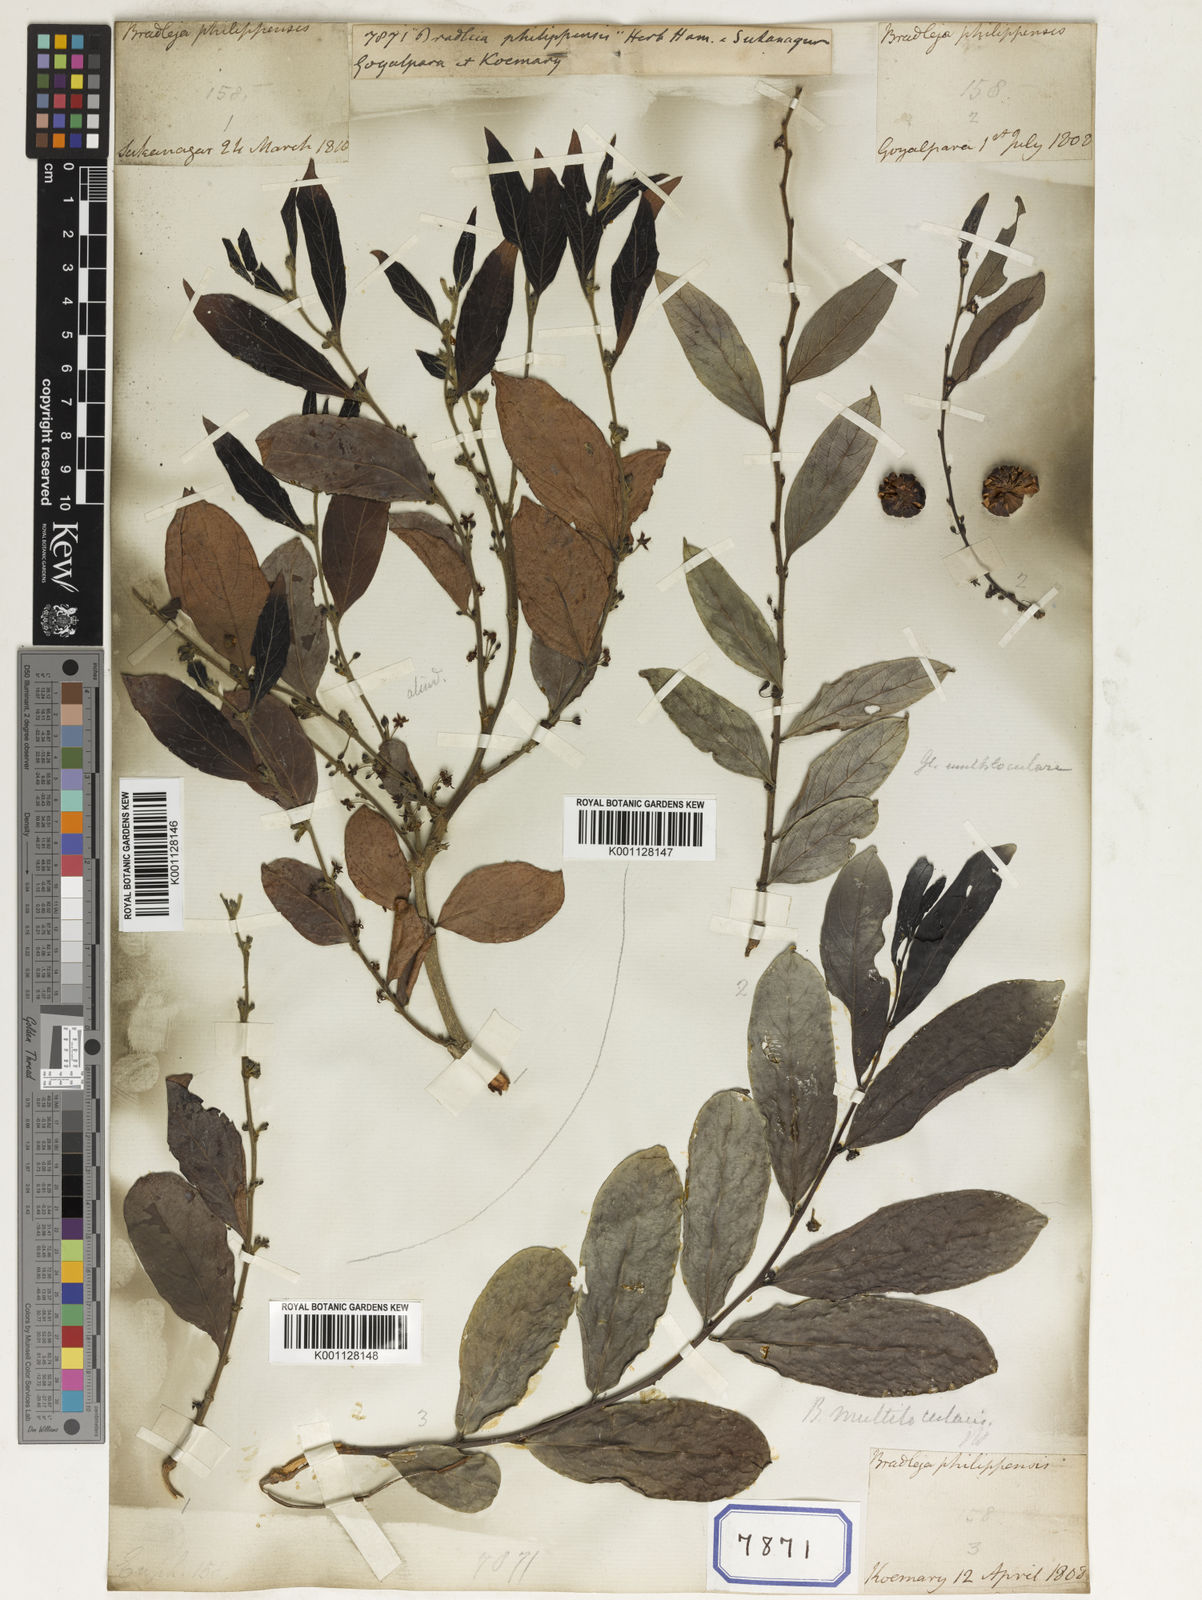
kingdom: Plantae
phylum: Tracheophyta
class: Magnoliopsida
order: Malpighiales
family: Euphorbiaceae
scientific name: Euphorbiaceae
